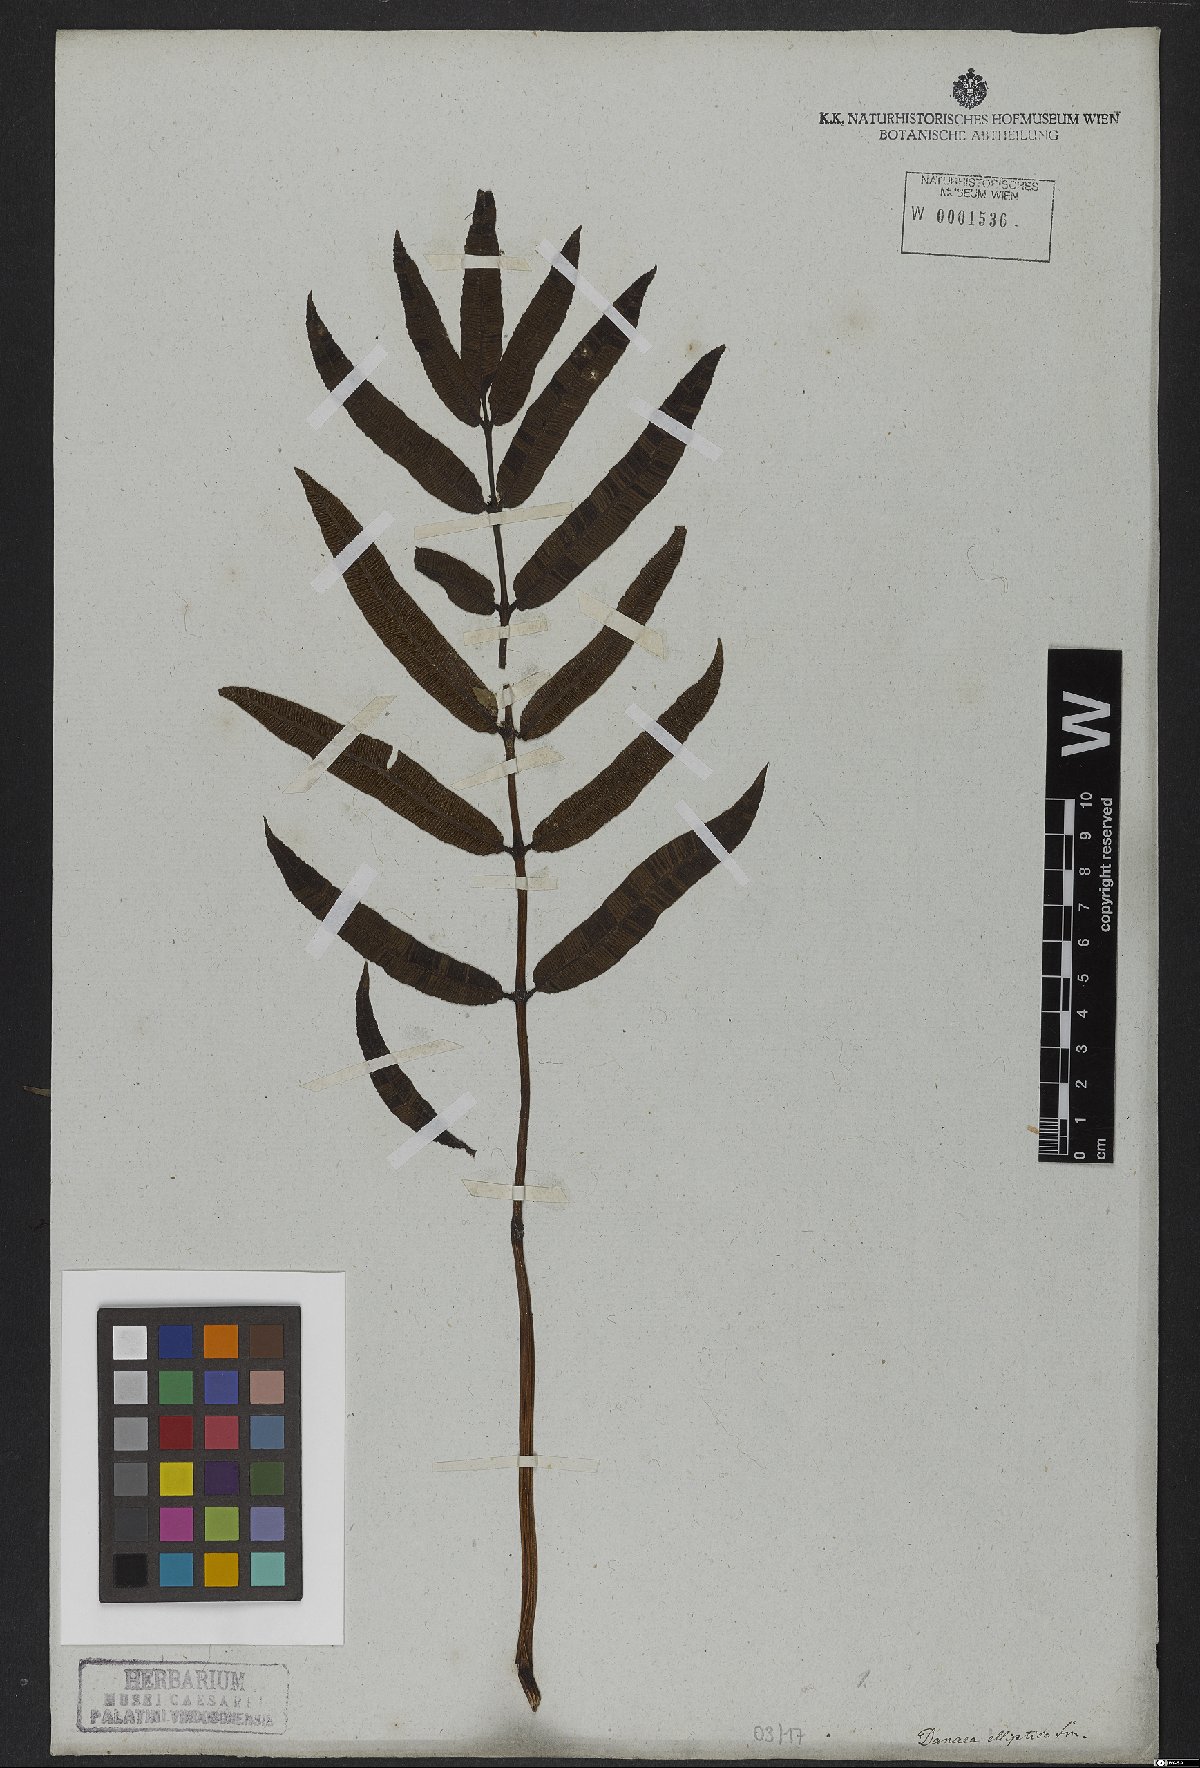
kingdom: Plantae
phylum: Tracheophyta
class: Polypodiopsida
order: Marattiales
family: Marattiaceae
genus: Danaea
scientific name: Danaea nodosa
